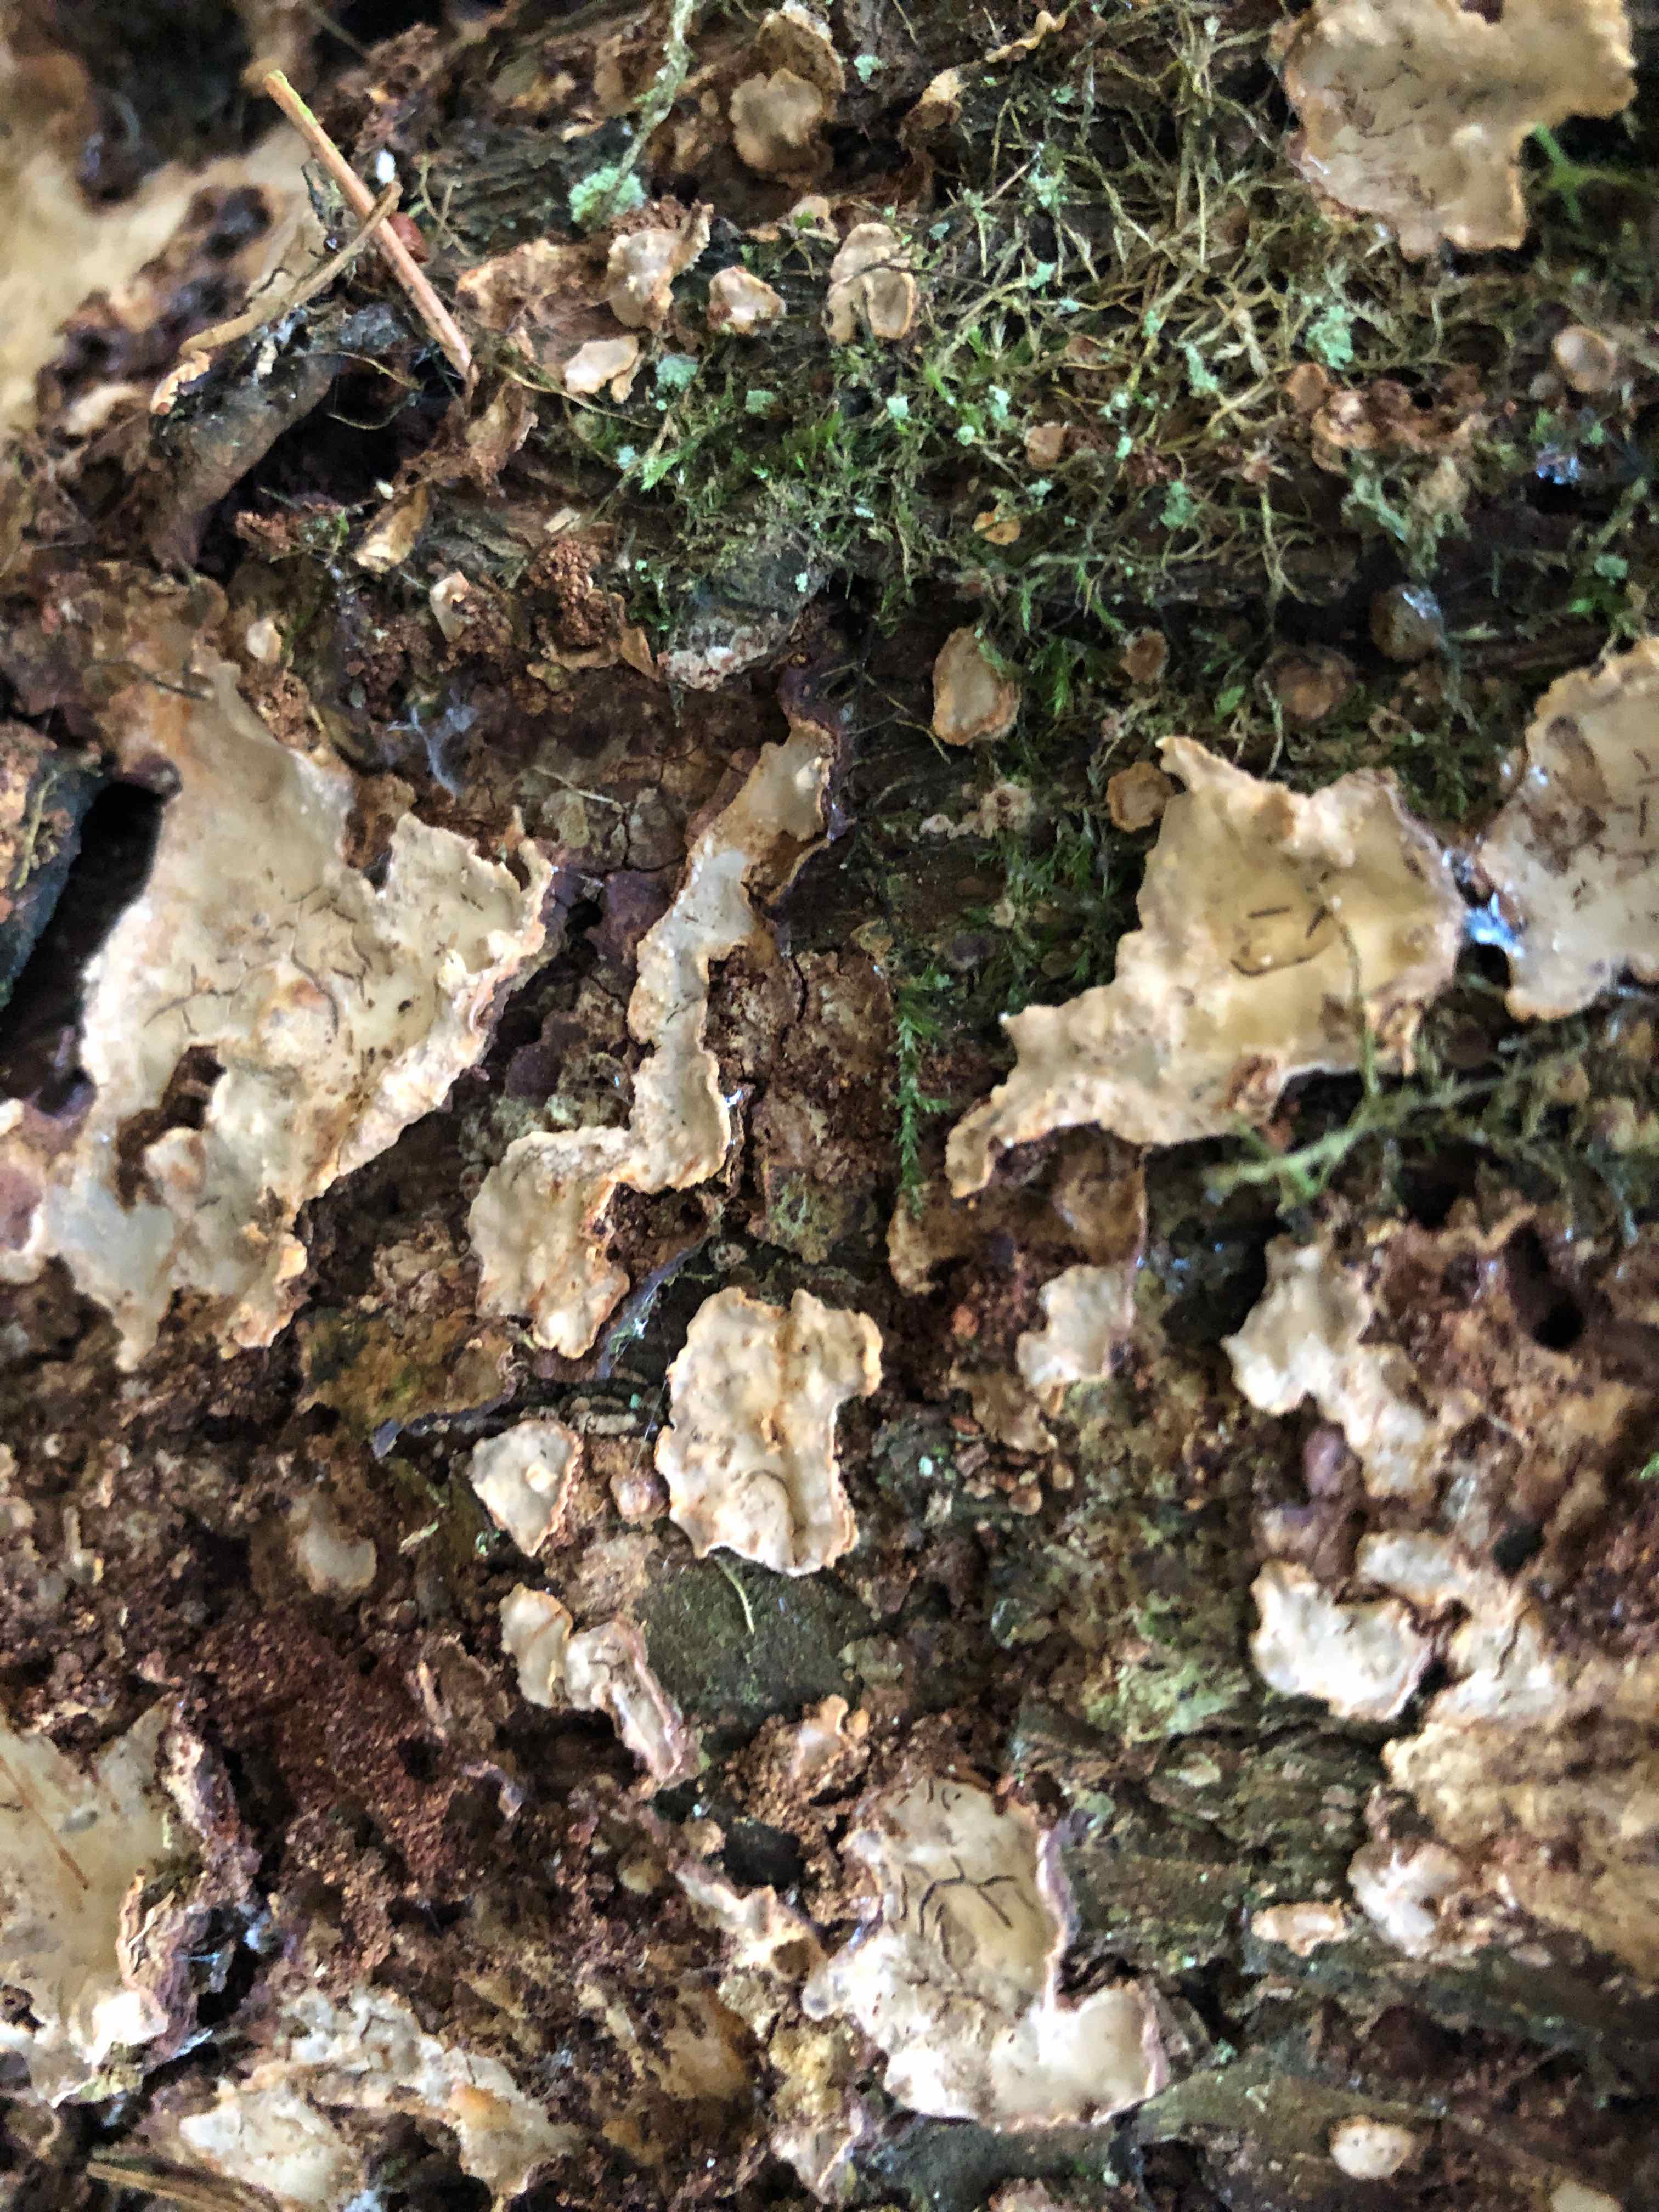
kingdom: Fungi
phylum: Basidiomycota
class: Agaricomycetes
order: Russulales
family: Stereaceae
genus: Stereum
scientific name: Stereum rugosum
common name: rynket lædersvamp
